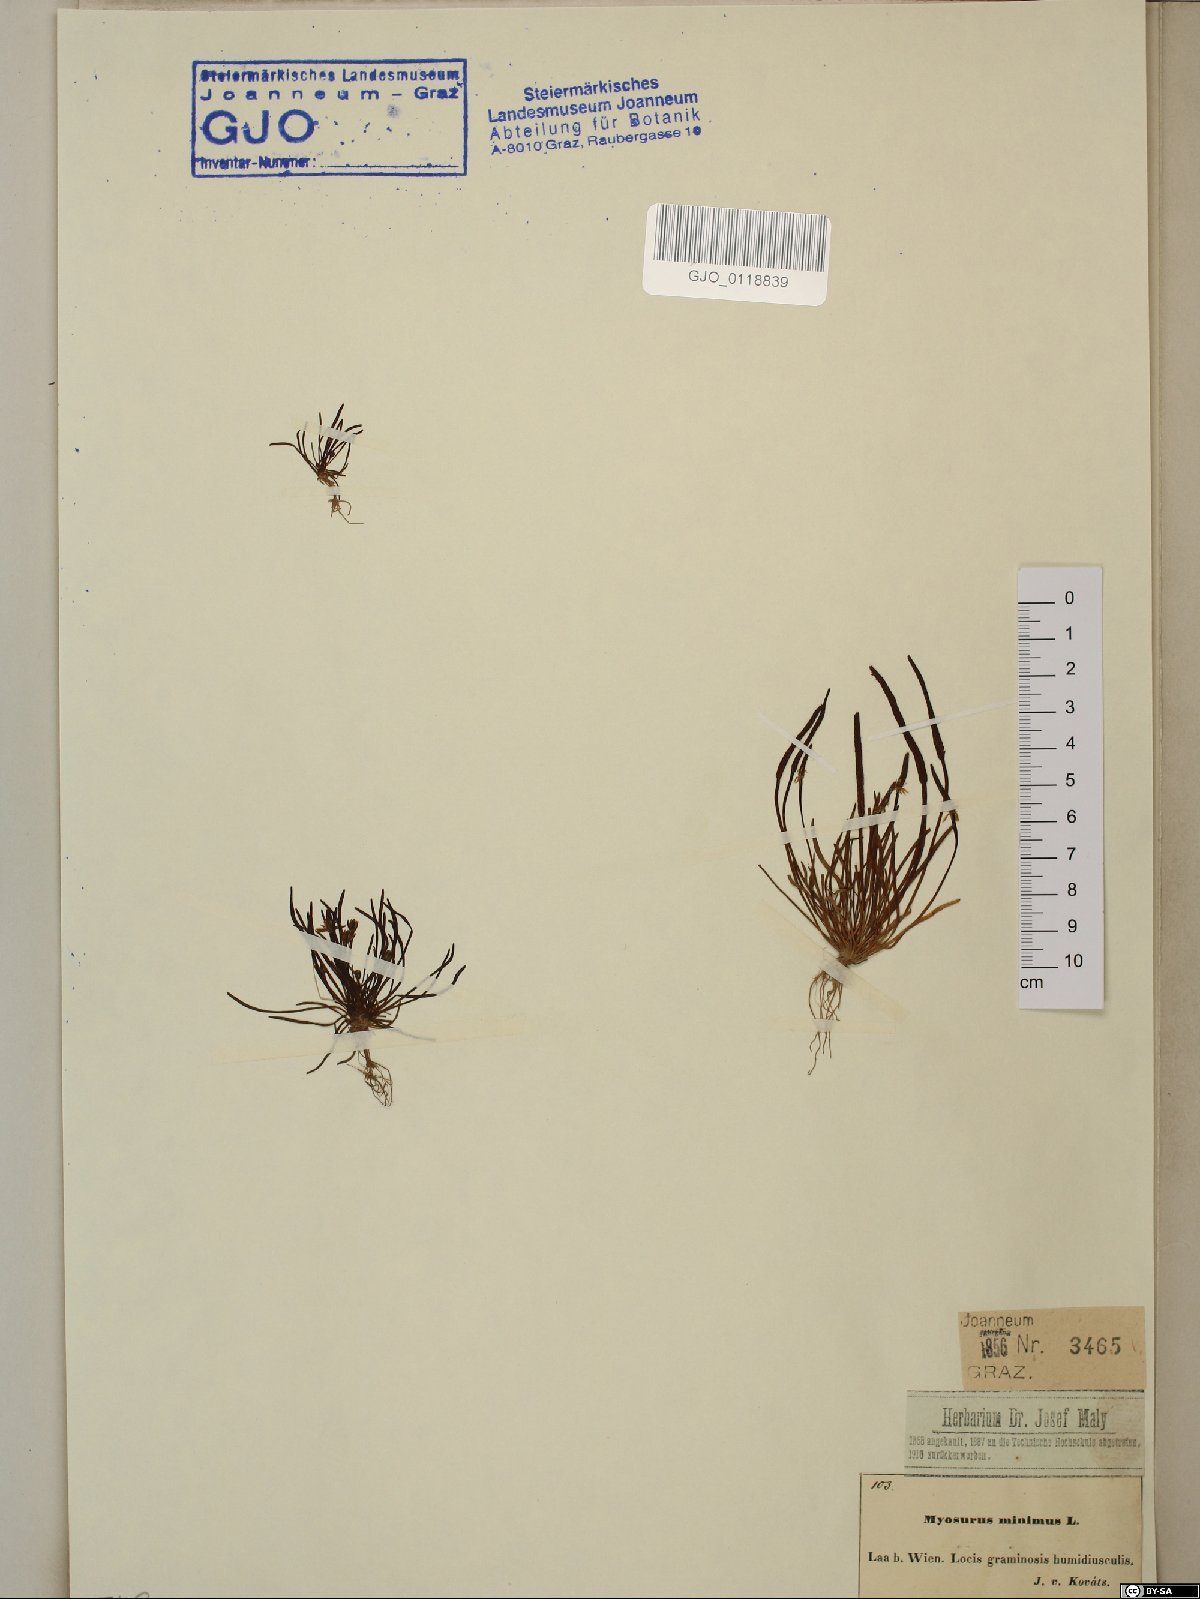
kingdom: Plantae
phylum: Tracheophyta
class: Magnoliopsida
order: Ranunculales
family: Ranunculaceae
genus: Myosurus
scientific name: Myosurus minimus
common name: Mousetail
